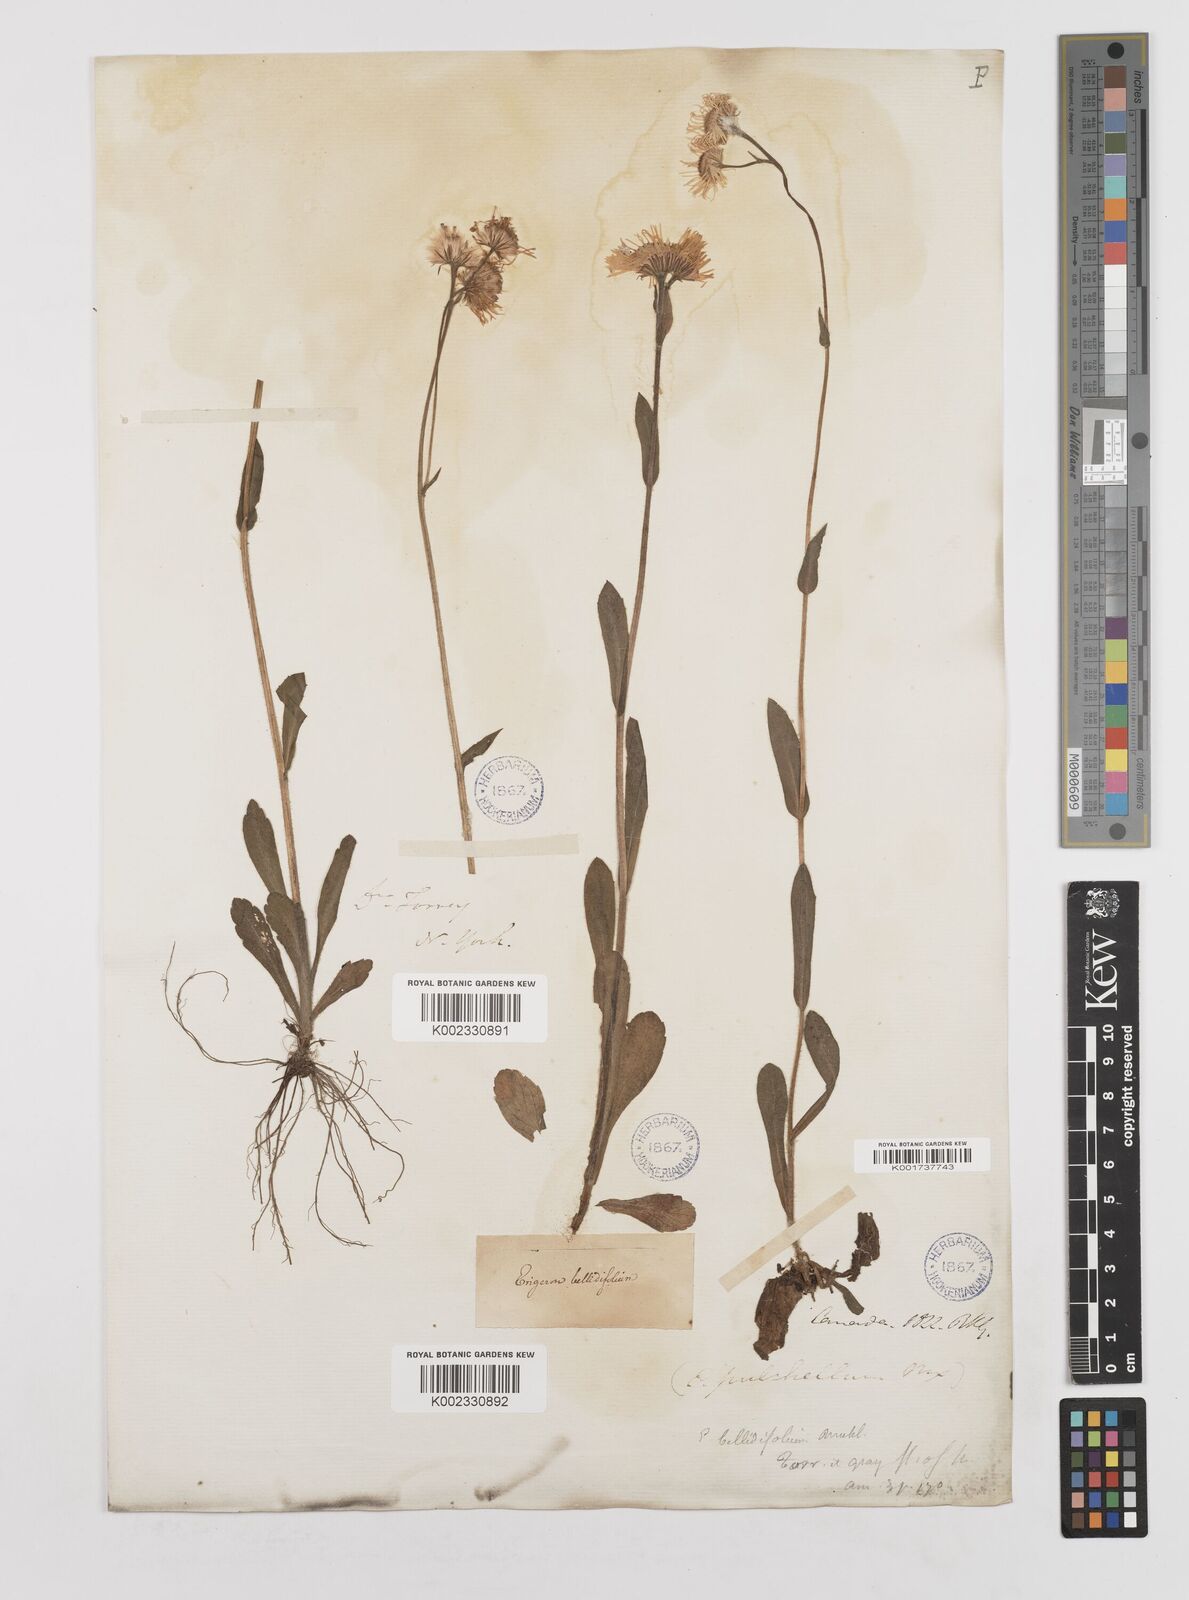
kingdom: Plantae
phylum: Tracheophyta
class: Magnoliopsida
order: Asterales
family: Asteraceae
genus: Erigeron
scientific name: Erigeron pulchellus
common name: Hairy fleabane
